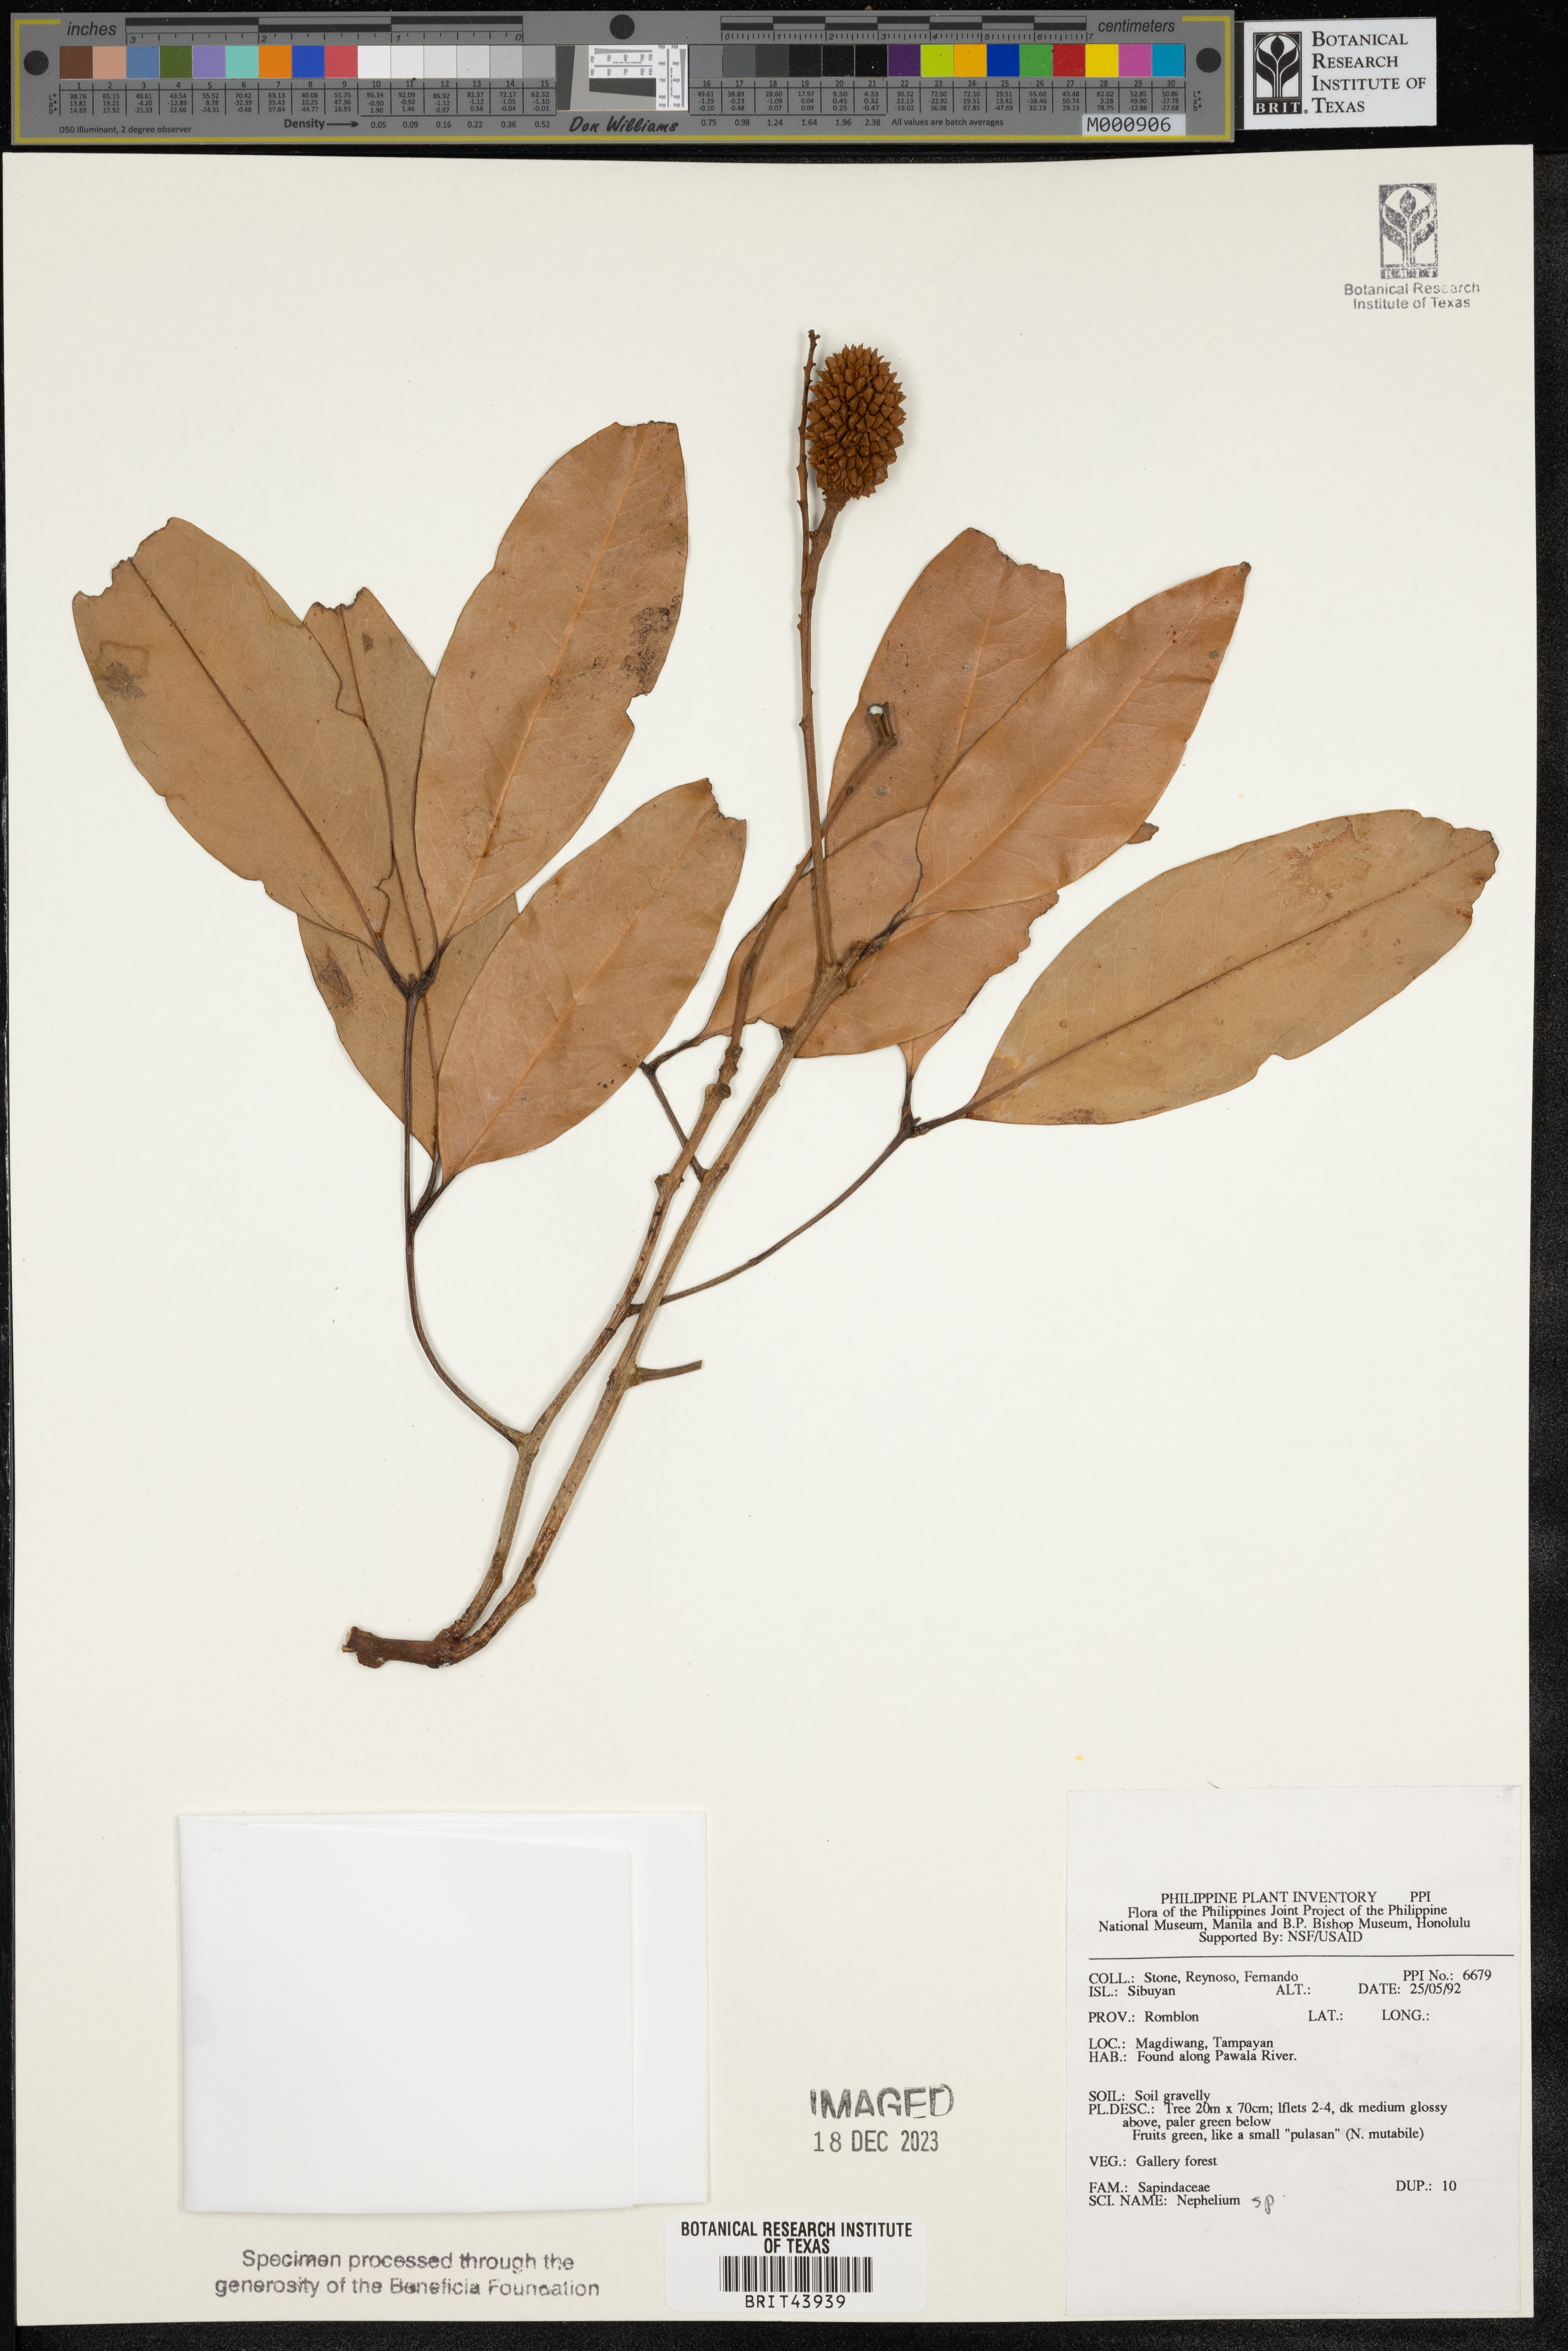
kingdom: Plantae
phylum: Tracheophyta
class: Magnoliopsida
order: Sapindales
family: Sapindaceae
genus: Nephelium
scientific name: Nephelium
